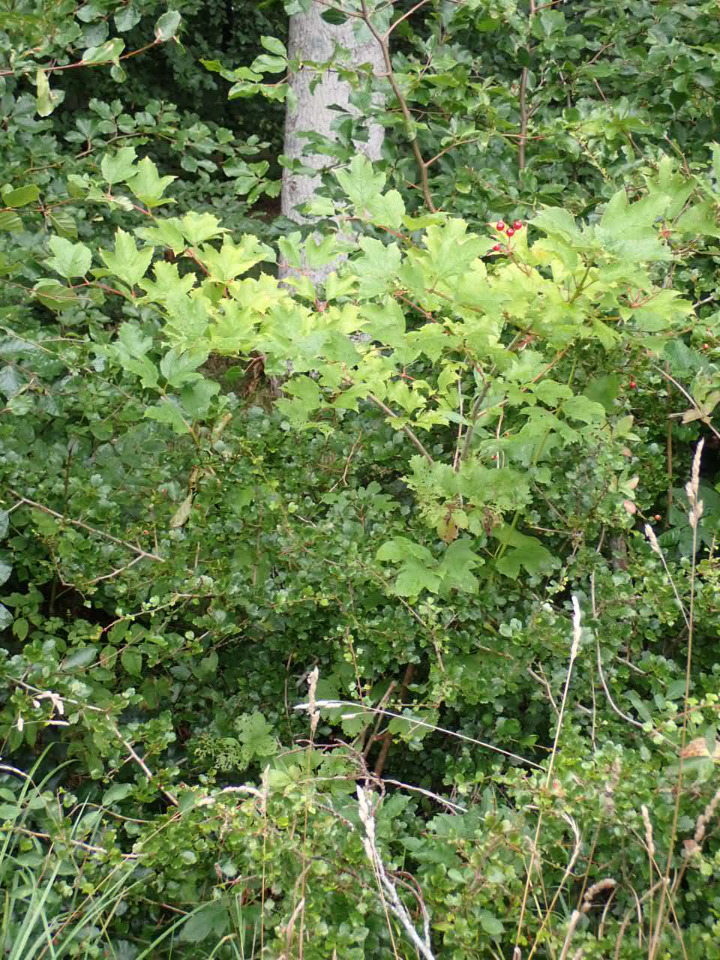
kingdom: Plantae
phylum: Tracheophyta
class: Magnoliopsida
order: Dipsacales
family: Viburnaceae
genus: Viburnum
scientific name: Viburnum opulus
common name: Kvalkved
